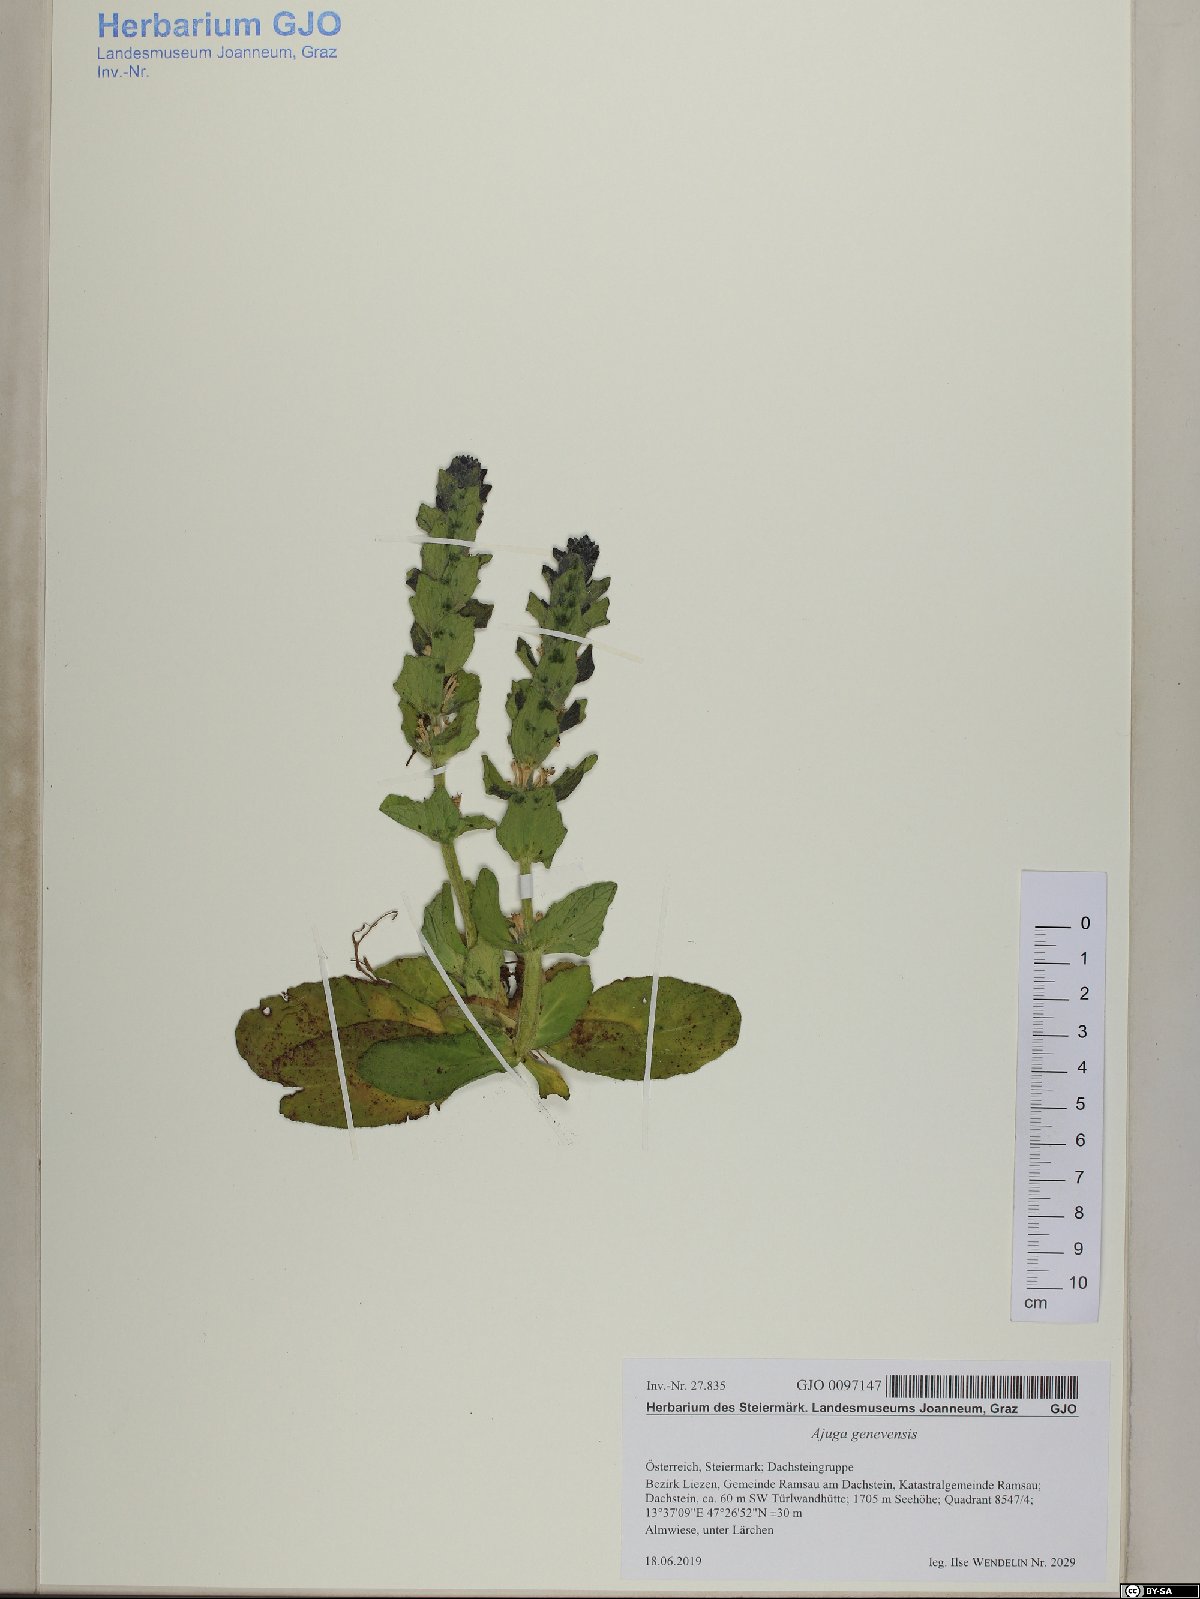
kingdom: Plantae
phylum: Tracheophyta
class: Magnoliopsida
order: Lamiales
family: Lamiaceae
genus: Ajuga
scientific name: Ajuga genevensis
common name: Blue bugle
